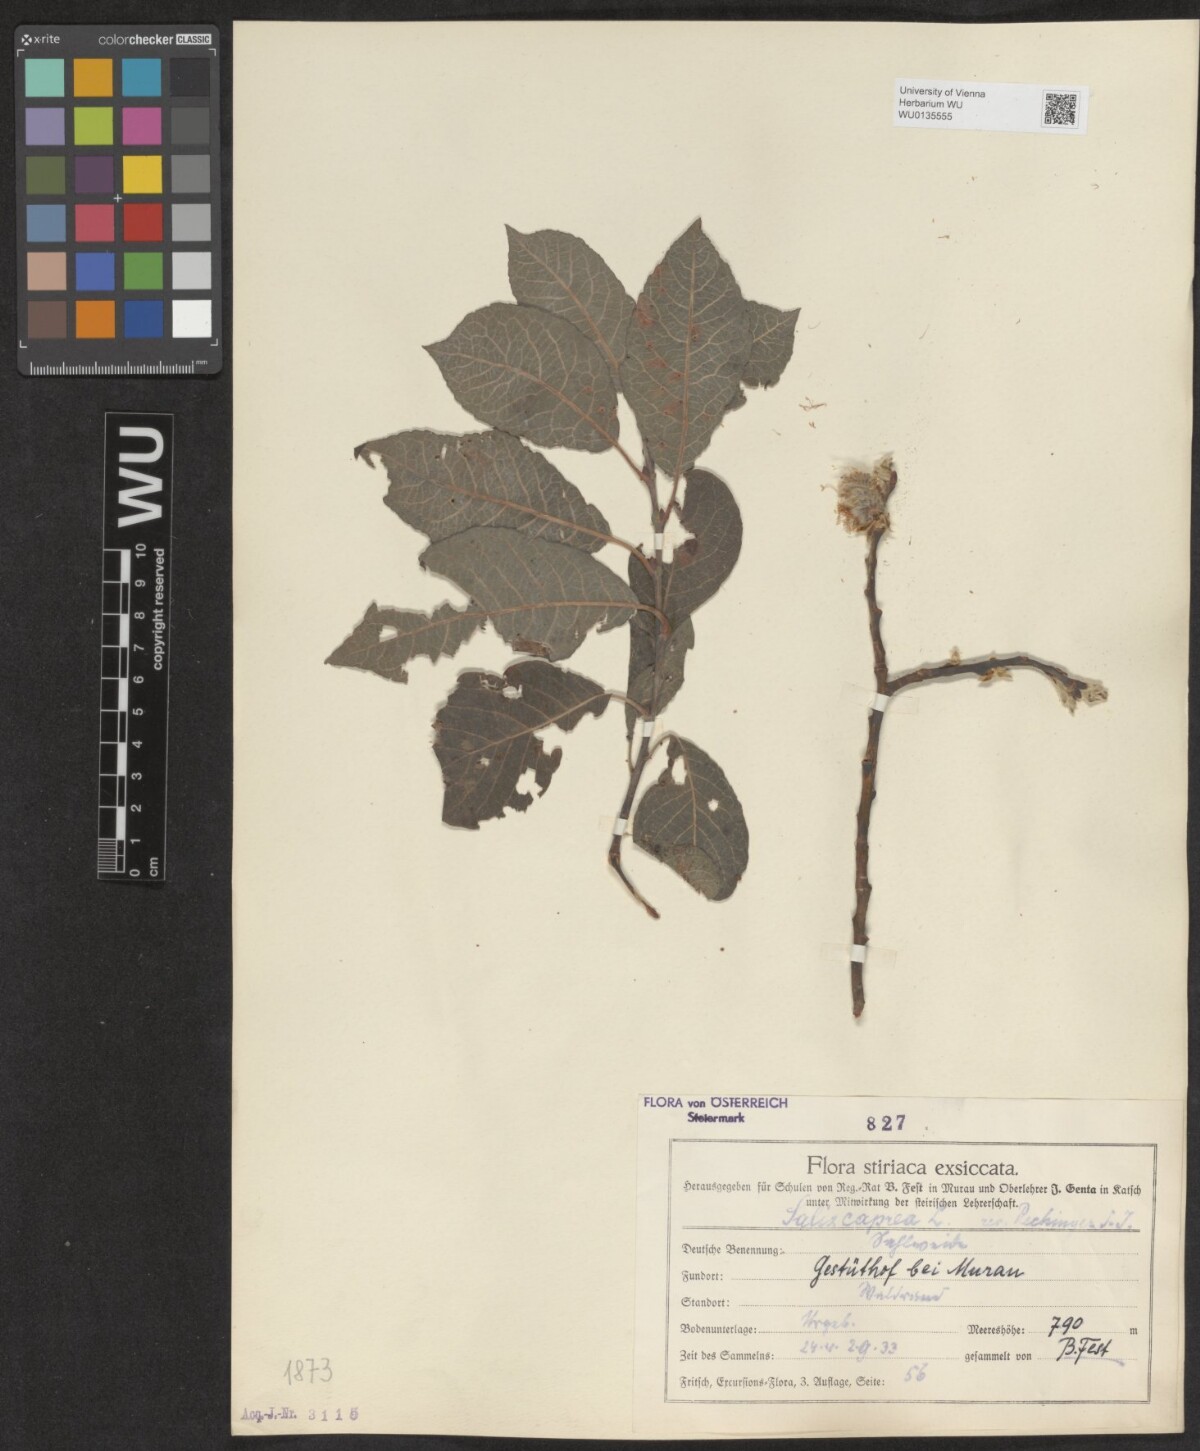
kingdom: Plantae
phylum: Tracheophyta
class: Magnoliopsida
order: Malpighiales
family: Salicaceae
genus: Salix
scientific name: Salix caprea
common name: Goat willow
